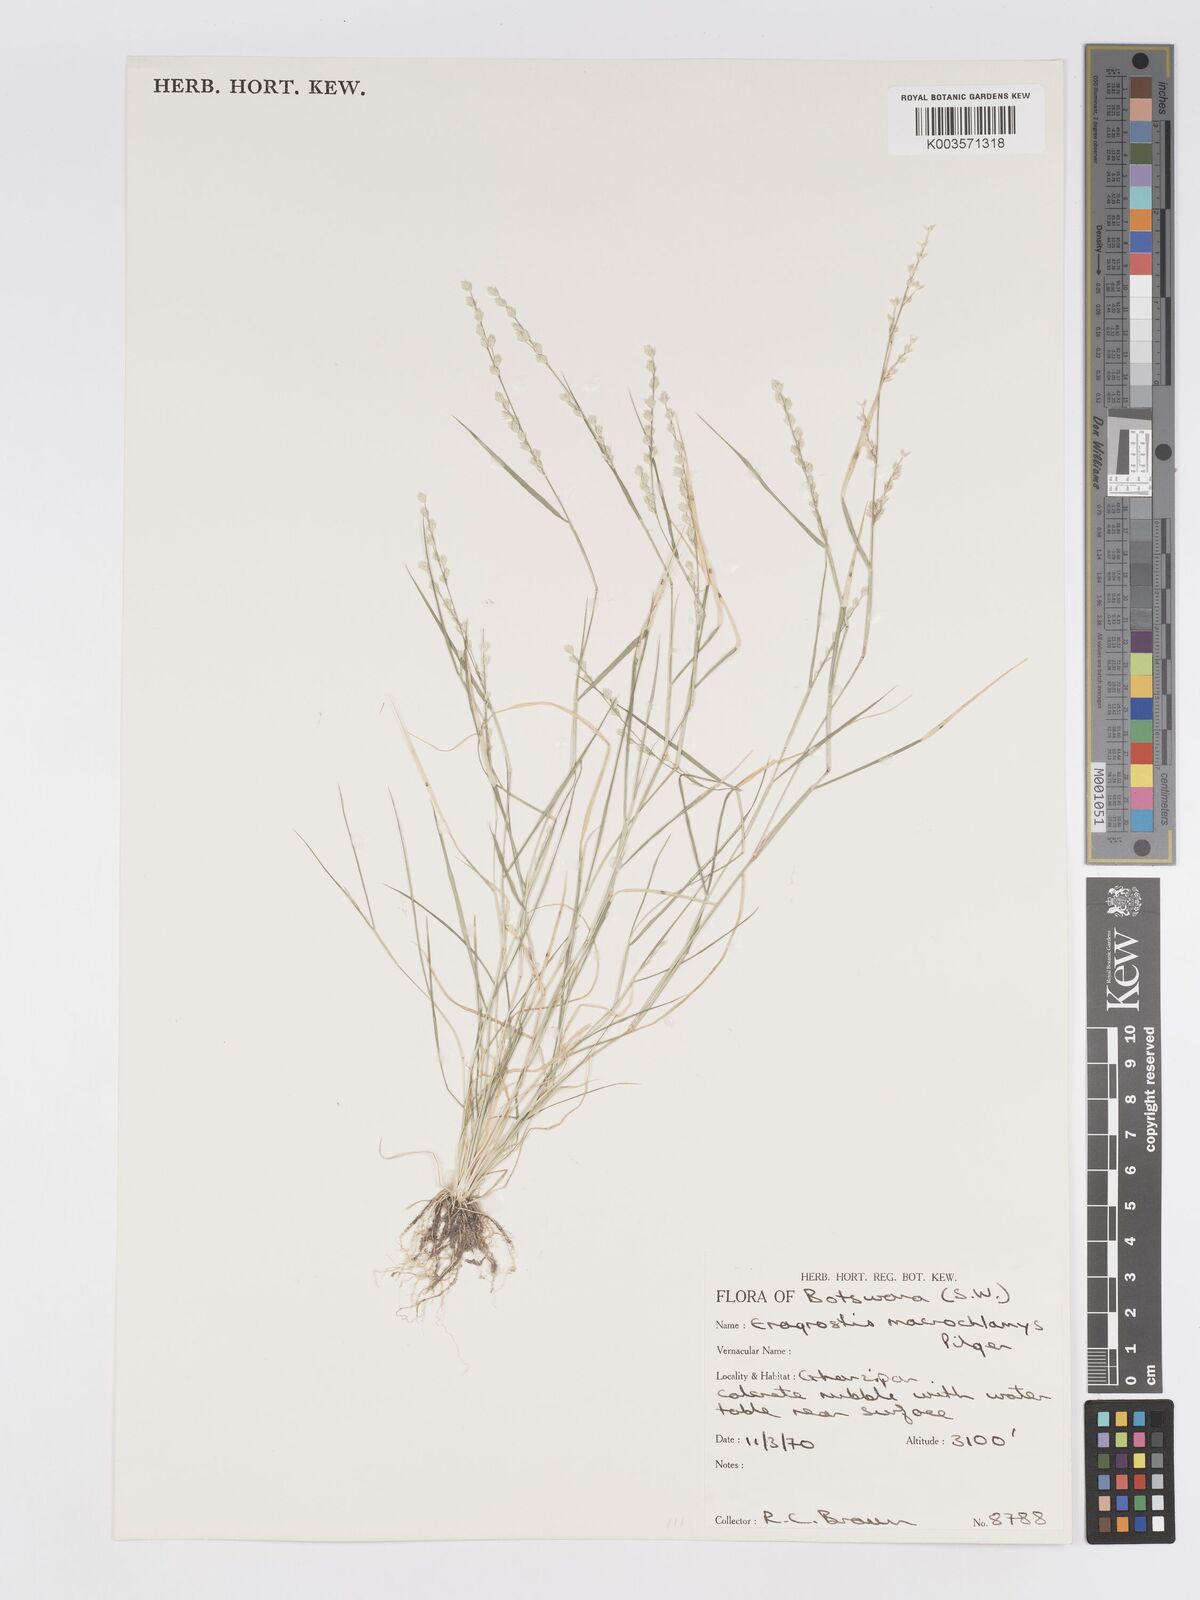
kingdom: Plantae
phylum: Tracheophyta
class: Liliopsida
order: Poales
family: Poaceae
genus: Eragrostis
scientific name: Eragrostis macrochlamys
